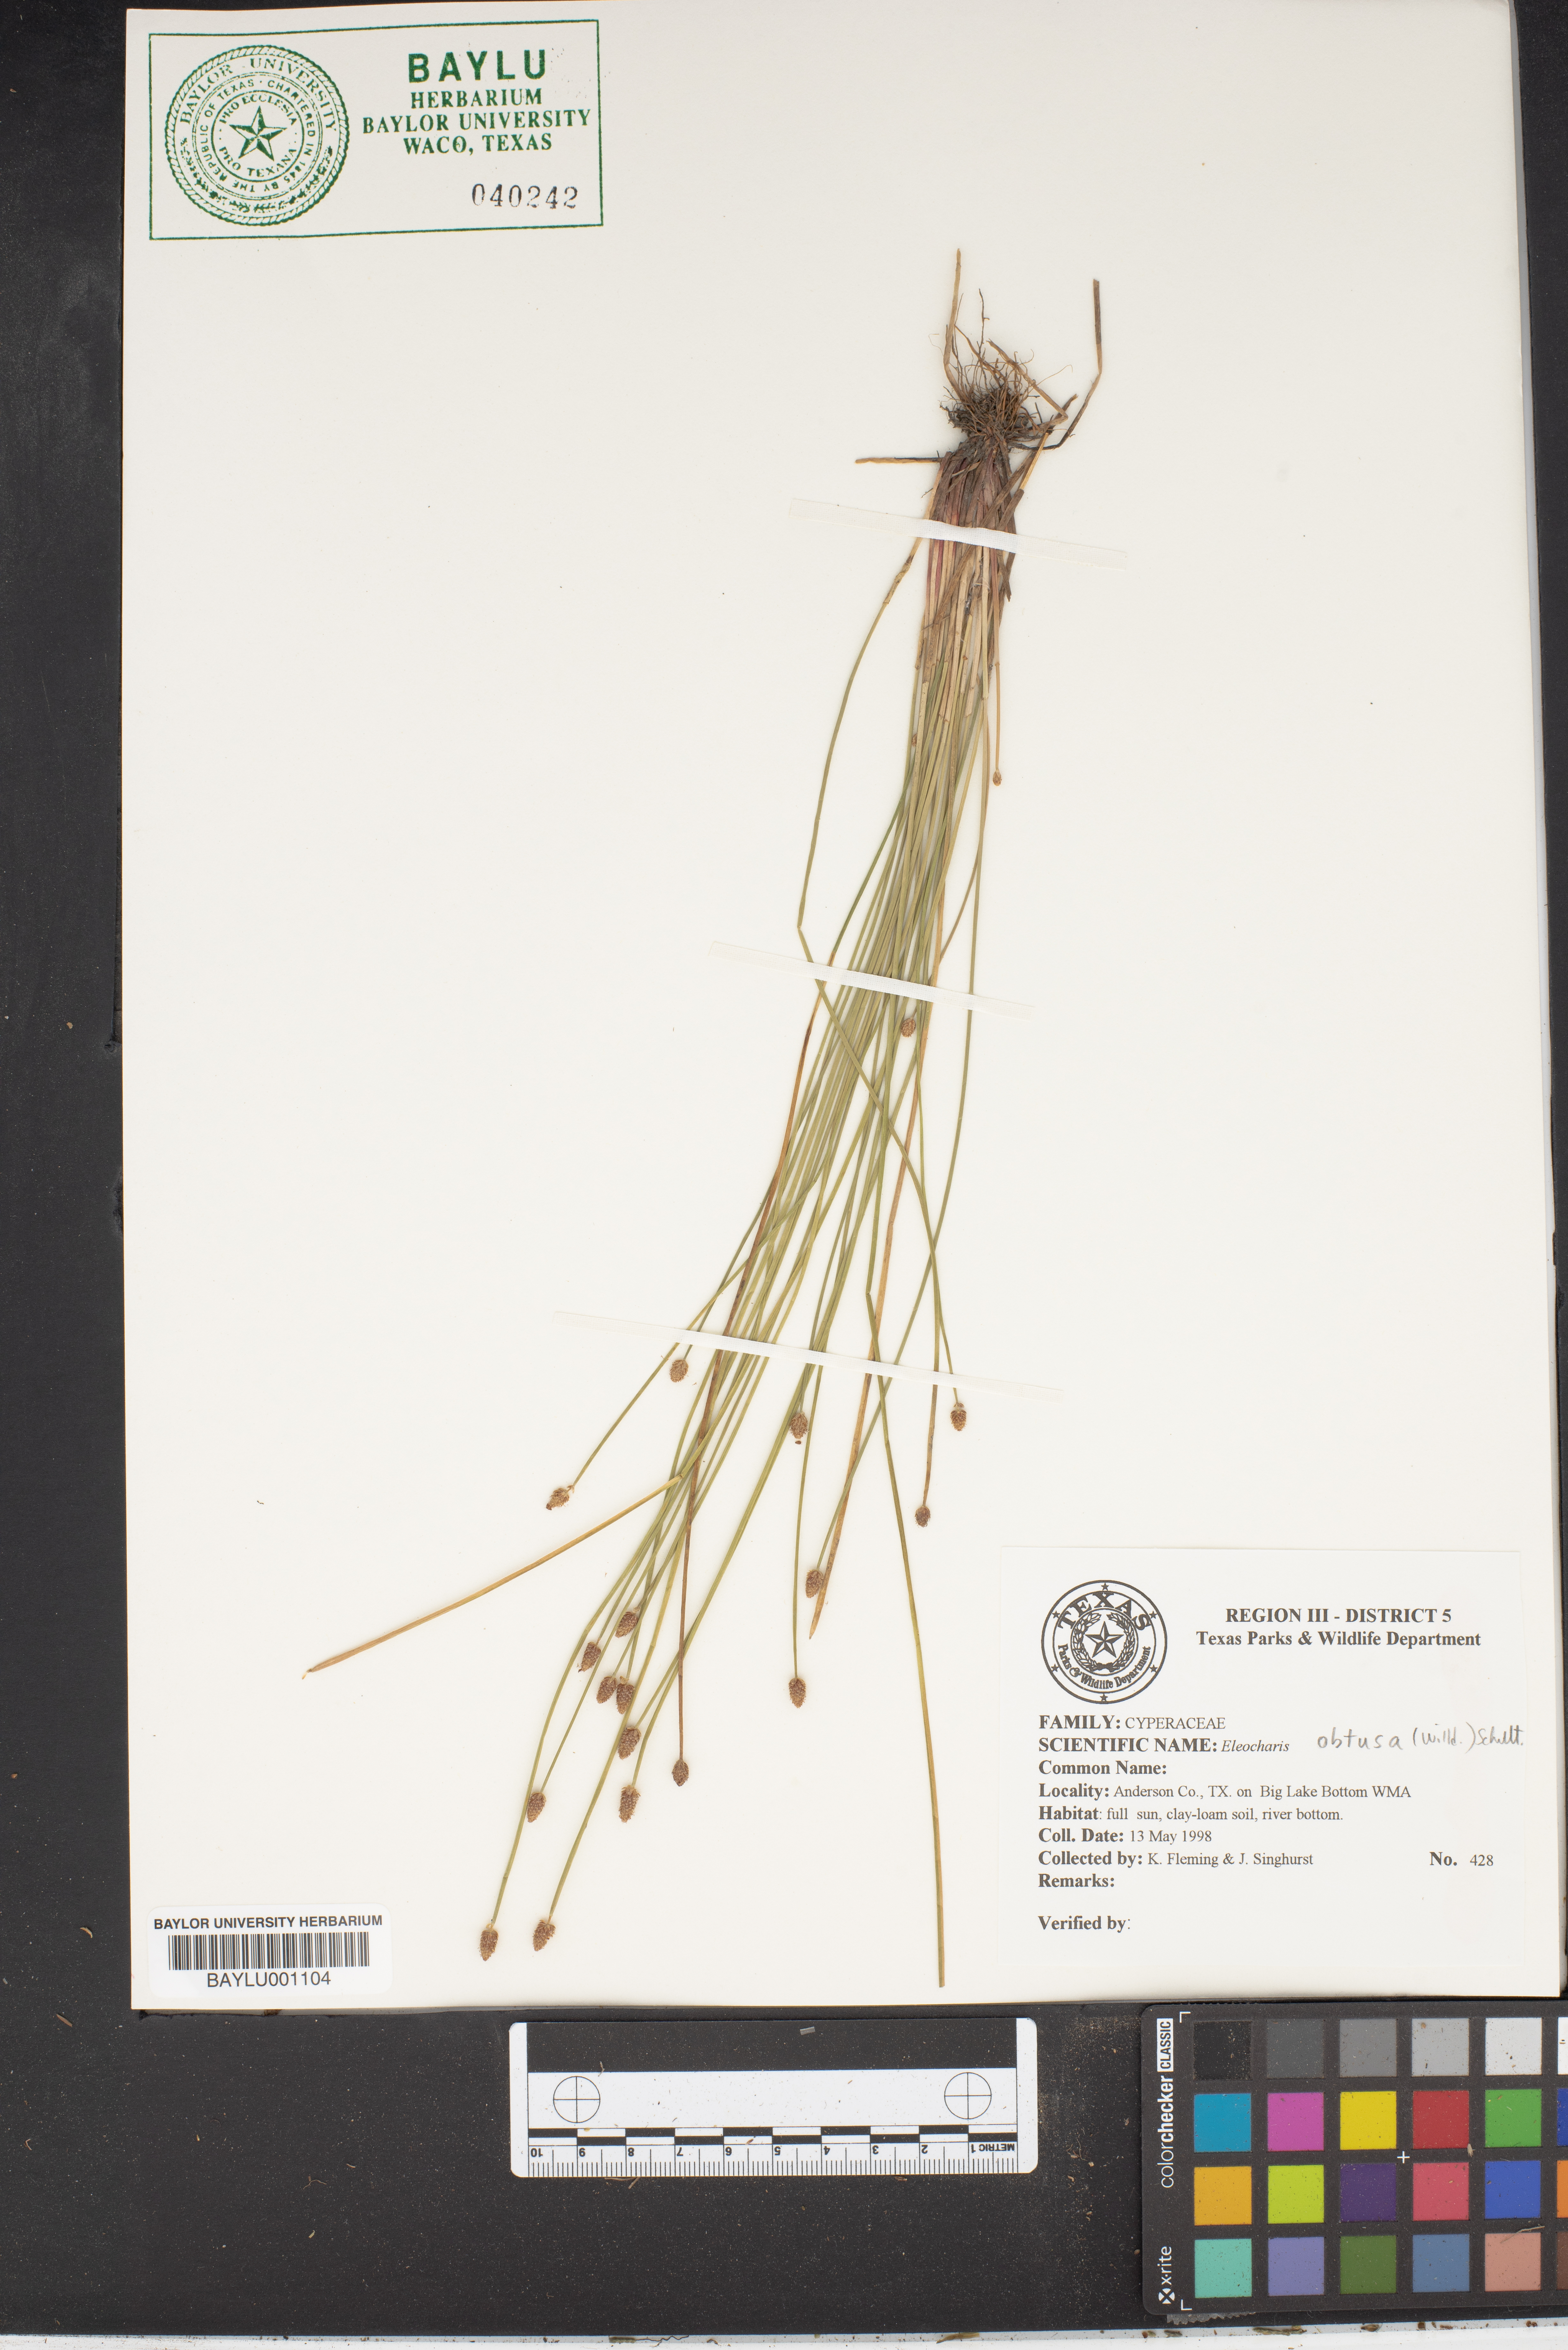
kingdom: Plantae
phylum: Tracheophyta
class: Liliopsida
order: Poales
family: Cyperaceae
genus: Eleocharis
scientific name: Eleocharis obtusa
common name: Blunt spikerush
